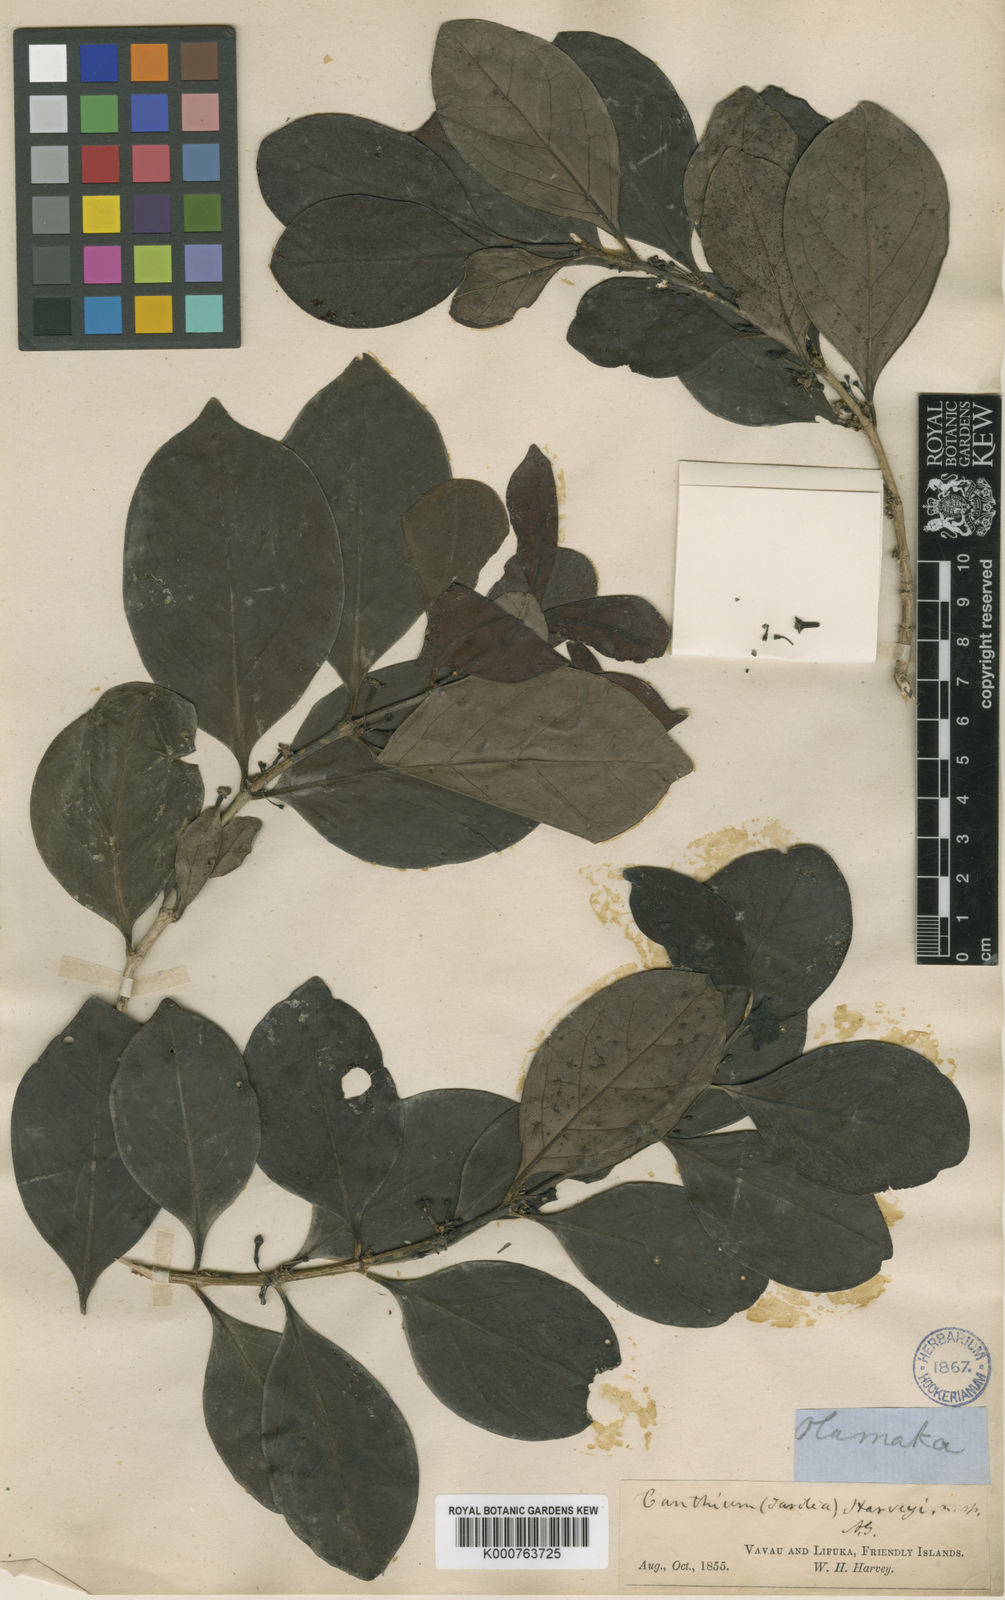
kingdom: Plantae
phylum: Tracheophyta
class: Magnoliopsida
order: Gentianales
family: Rubiaceae
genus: Cyclophyllum
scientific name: Cyclophyllum
